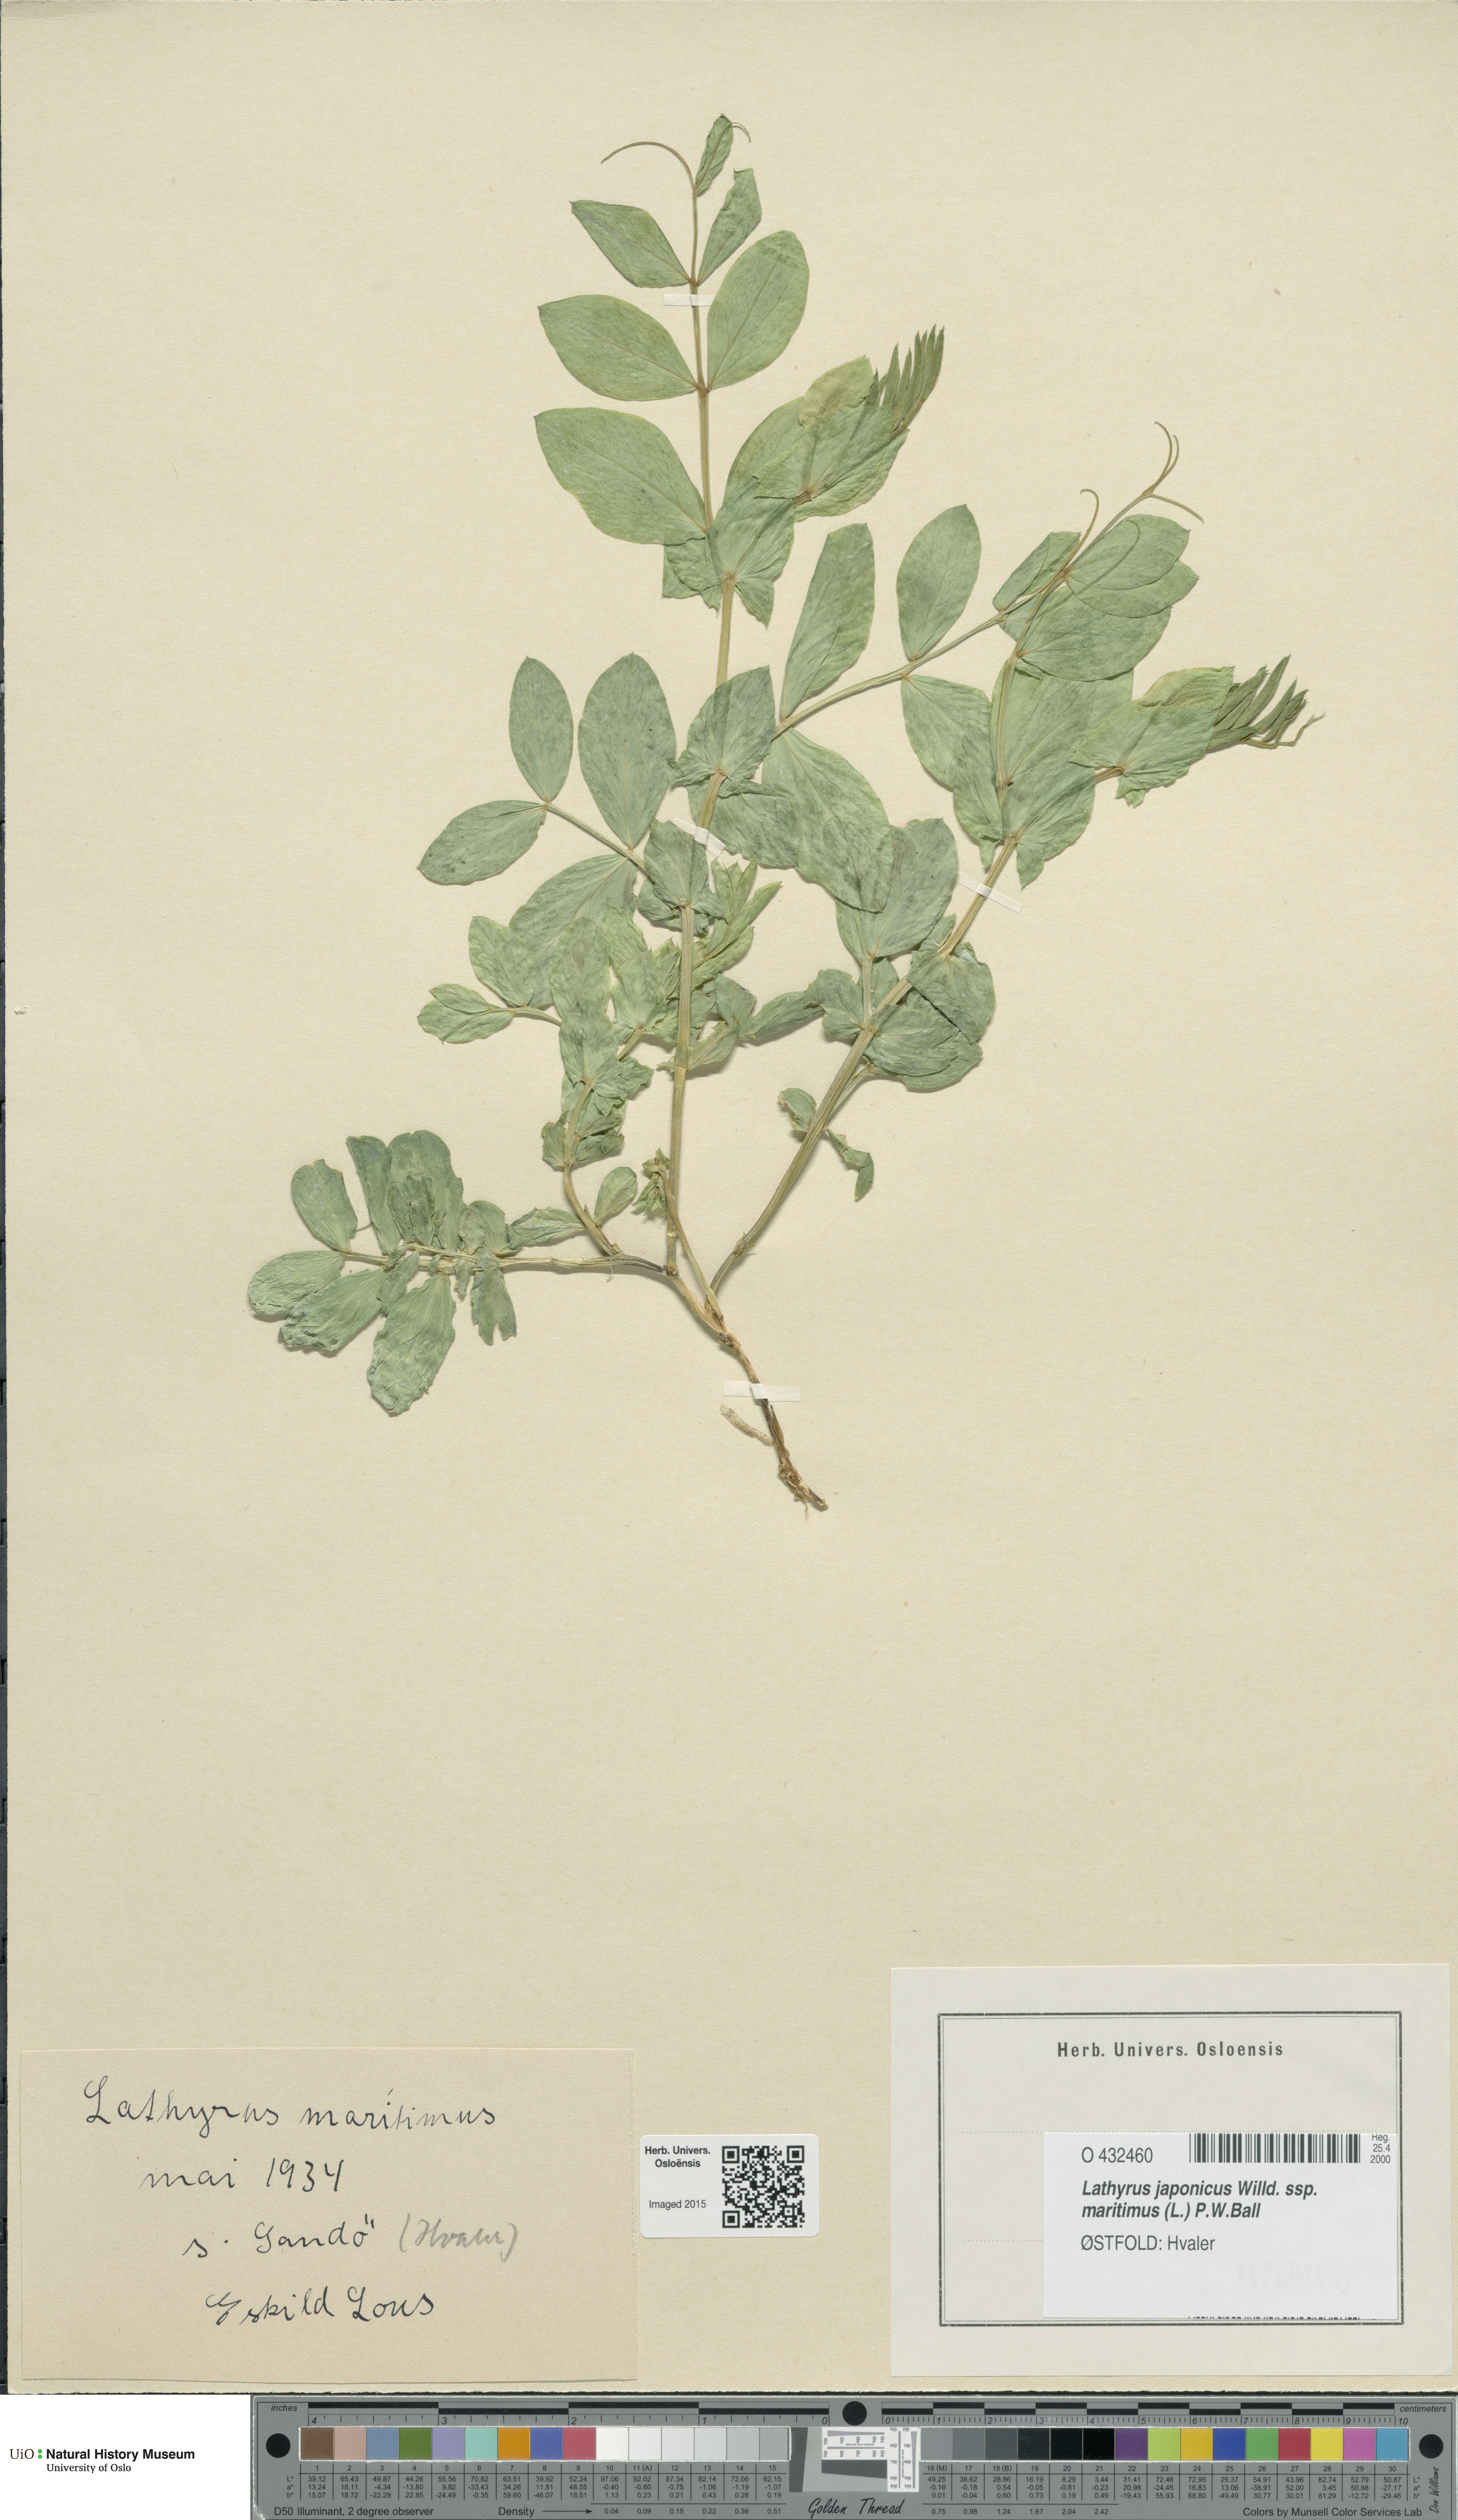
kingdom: Plantae
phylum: Tracheophyta
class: Magnoliopsida
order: Fabales
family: Fabaceae
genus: Lathyrus
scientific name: Lathyrus japonicus
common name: Sea pea
